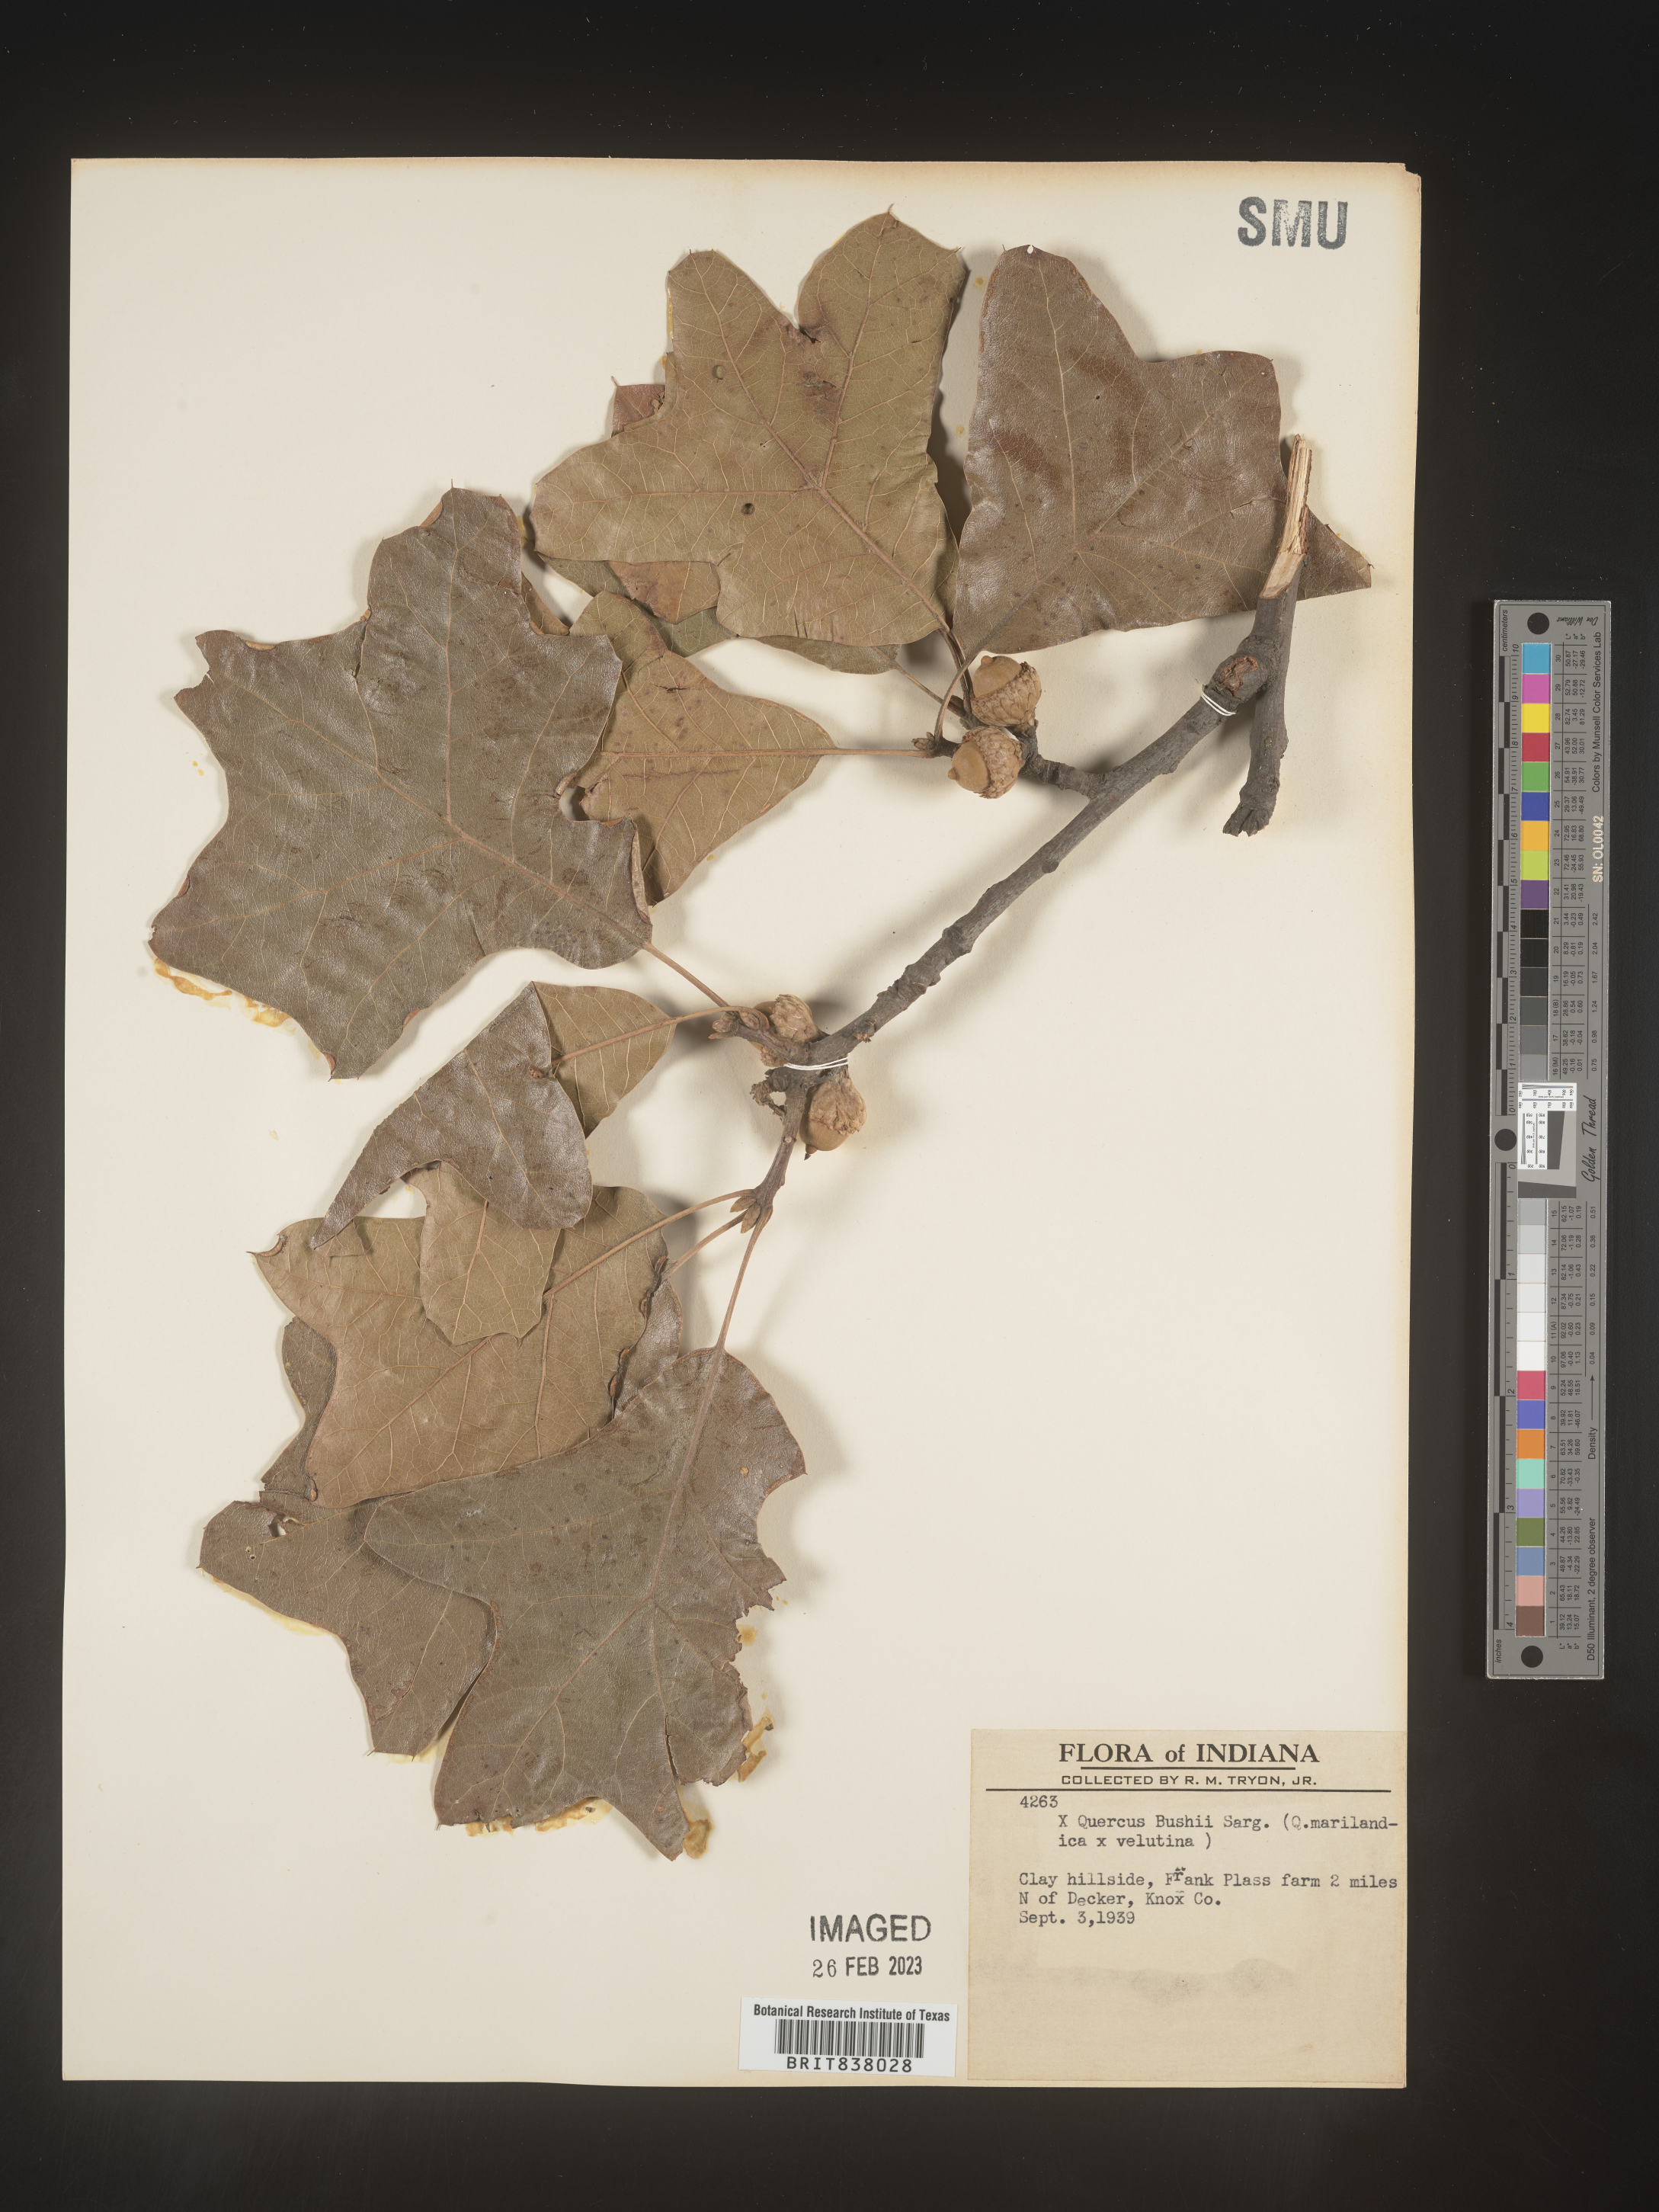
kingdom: Plantae
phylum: Tracheophyta
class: Magnoliopsida
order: Fagales
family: Fagaceae
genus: Quercus
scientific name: Quercus
